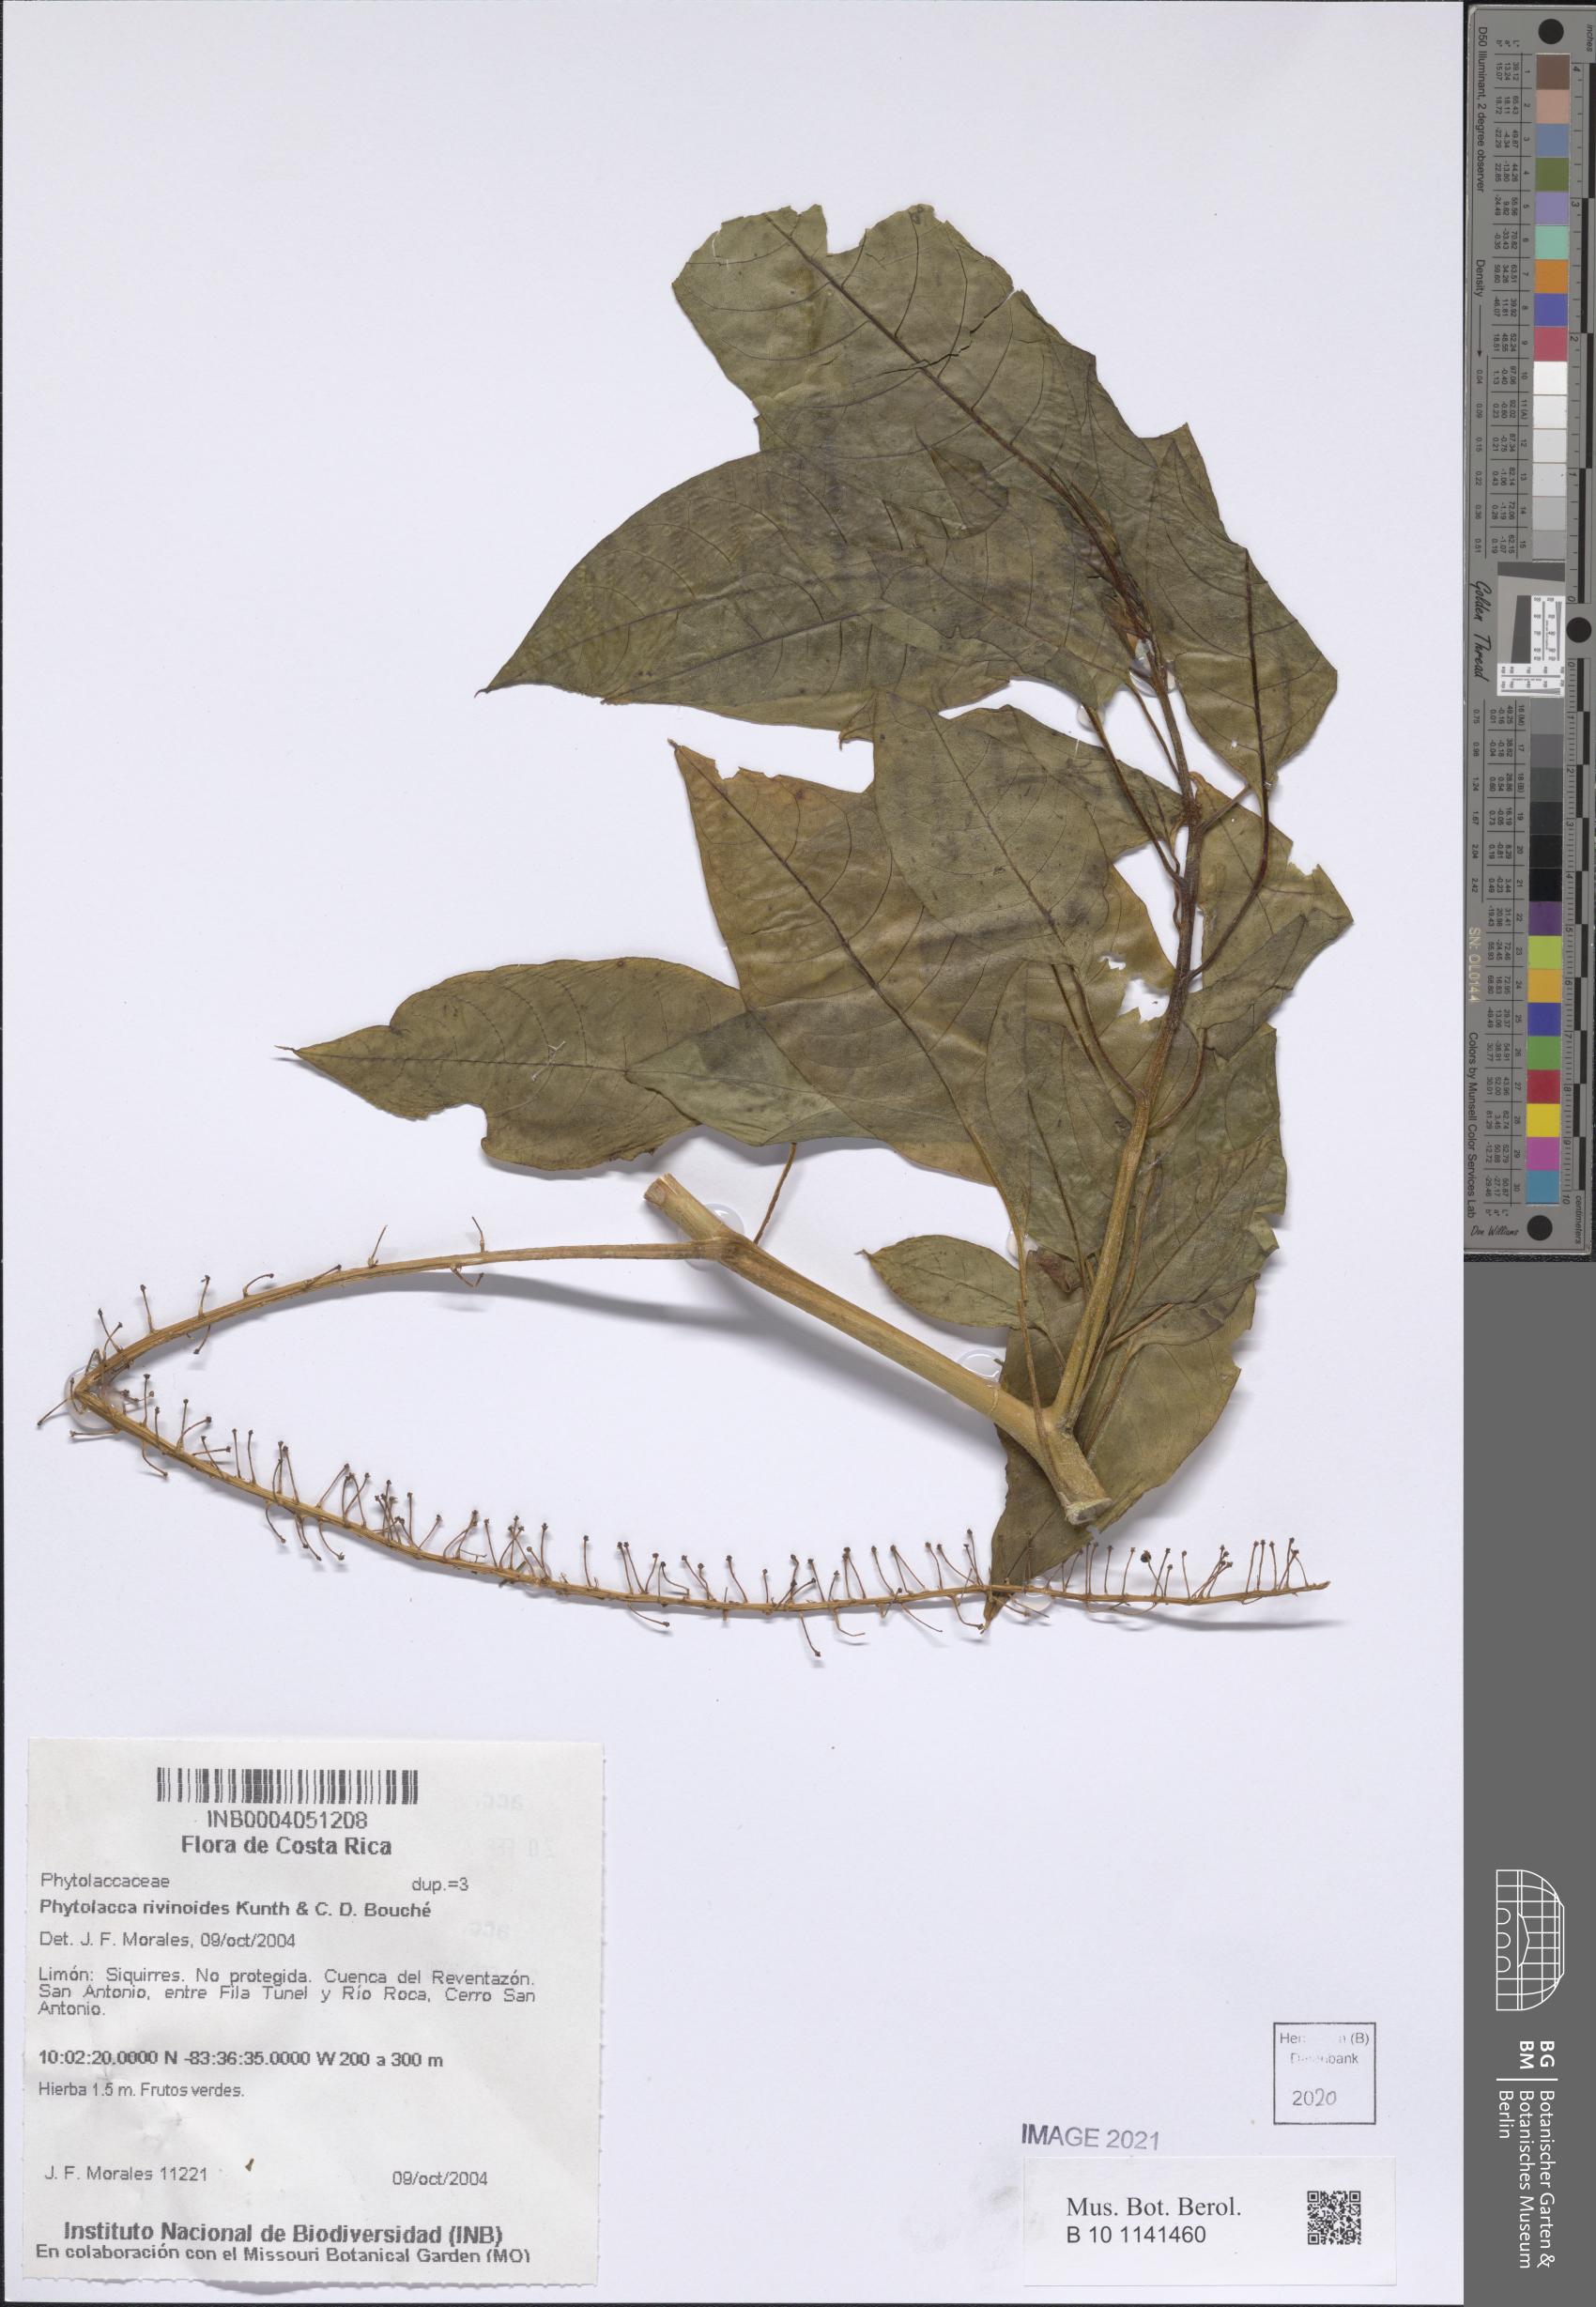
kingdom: Plantae
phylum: Tracheophyta
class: Magnoliopsida
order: Caryophyllales
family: Phytolaccaceae
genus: Phytolacca
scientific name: Phytolacca rivinoides
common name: Venezuelan pokeweed
